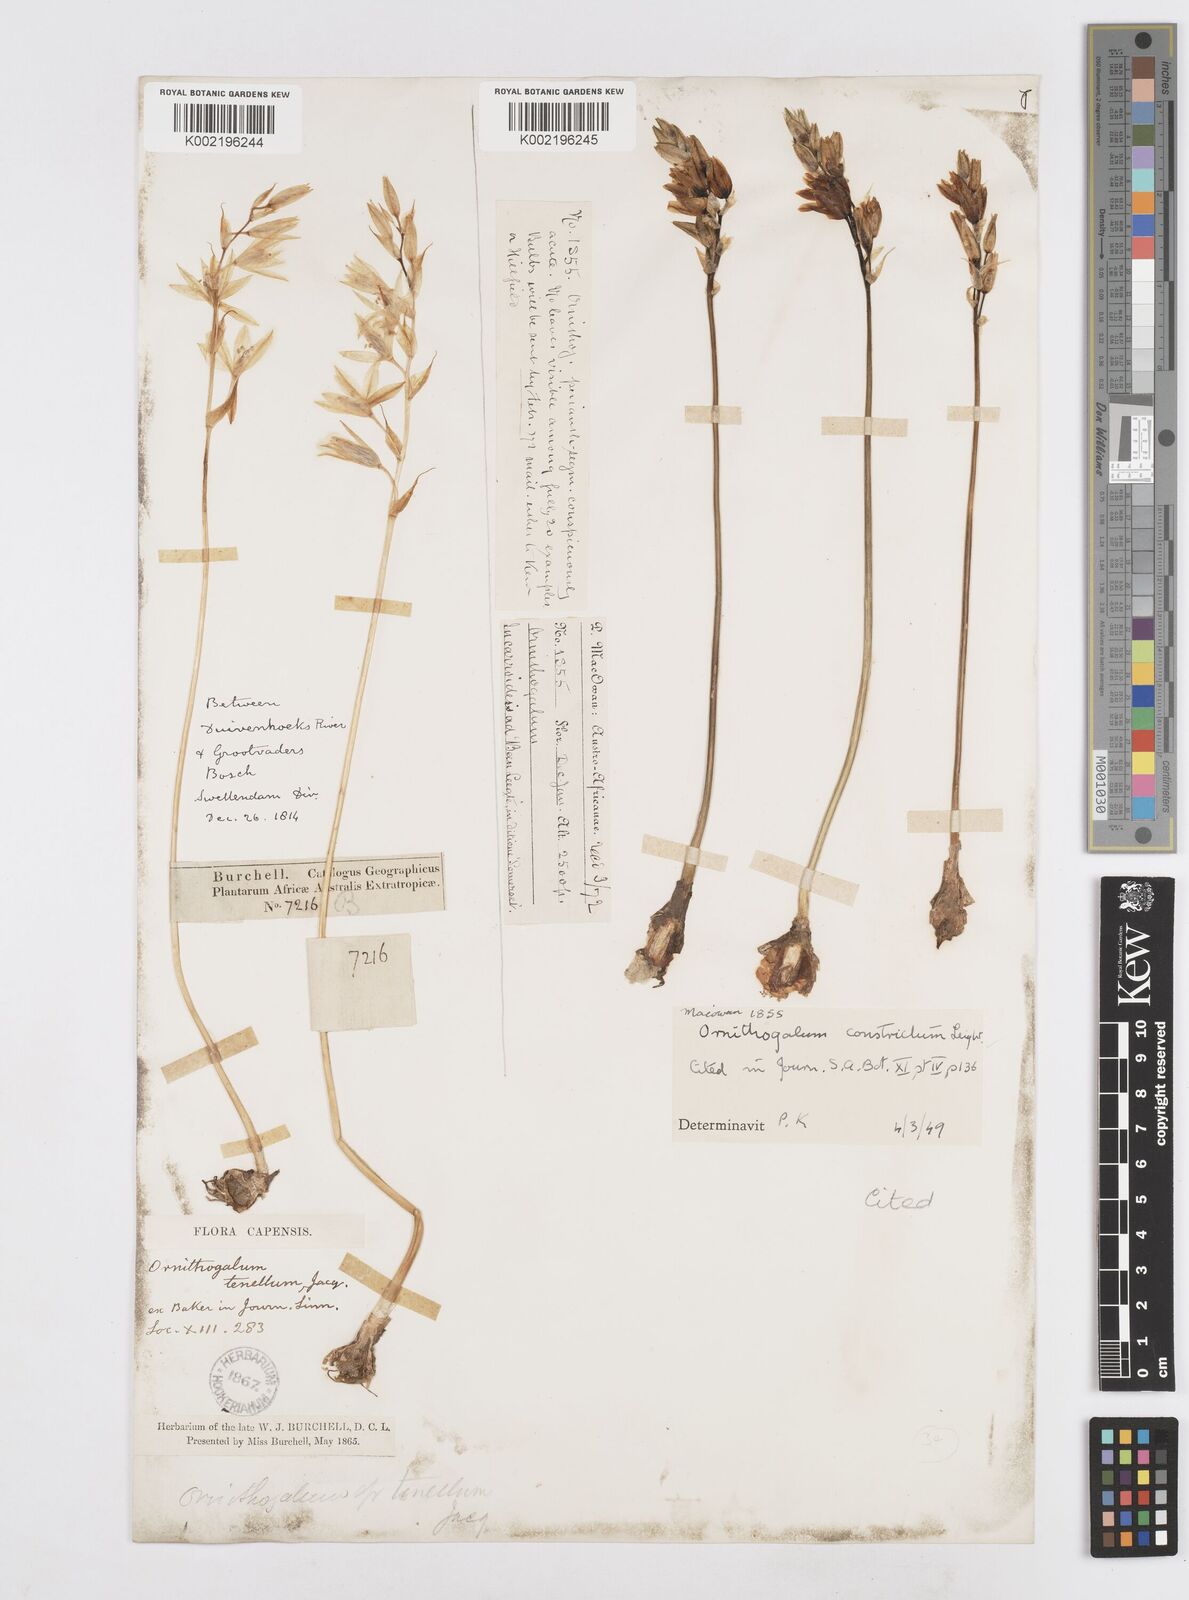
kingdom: Plantae
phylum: Tracheophyta
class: Liliopsida
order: Asparagales
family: Asparagaceae
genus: Ornithogalum
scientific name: Ornithogalum constrictum
